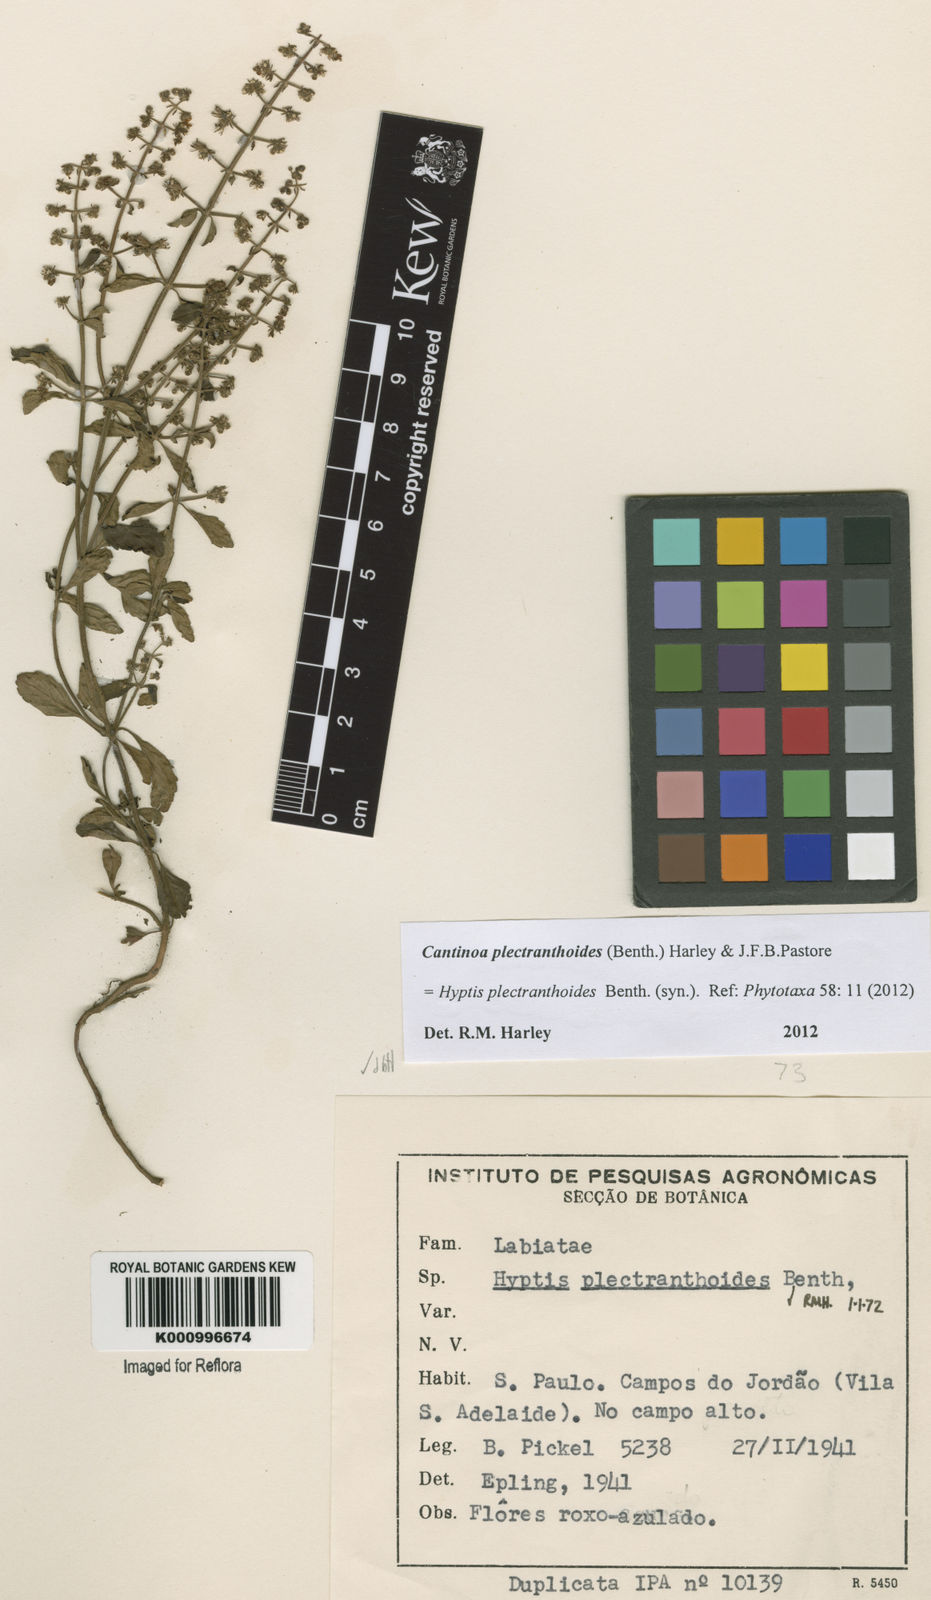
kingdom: Plantae
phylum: Tracheophyta
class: Magnoliopsida
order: Lamiales
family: Lamiaceae
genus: Cantinoa
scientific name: Cantinoa plectranthoides
